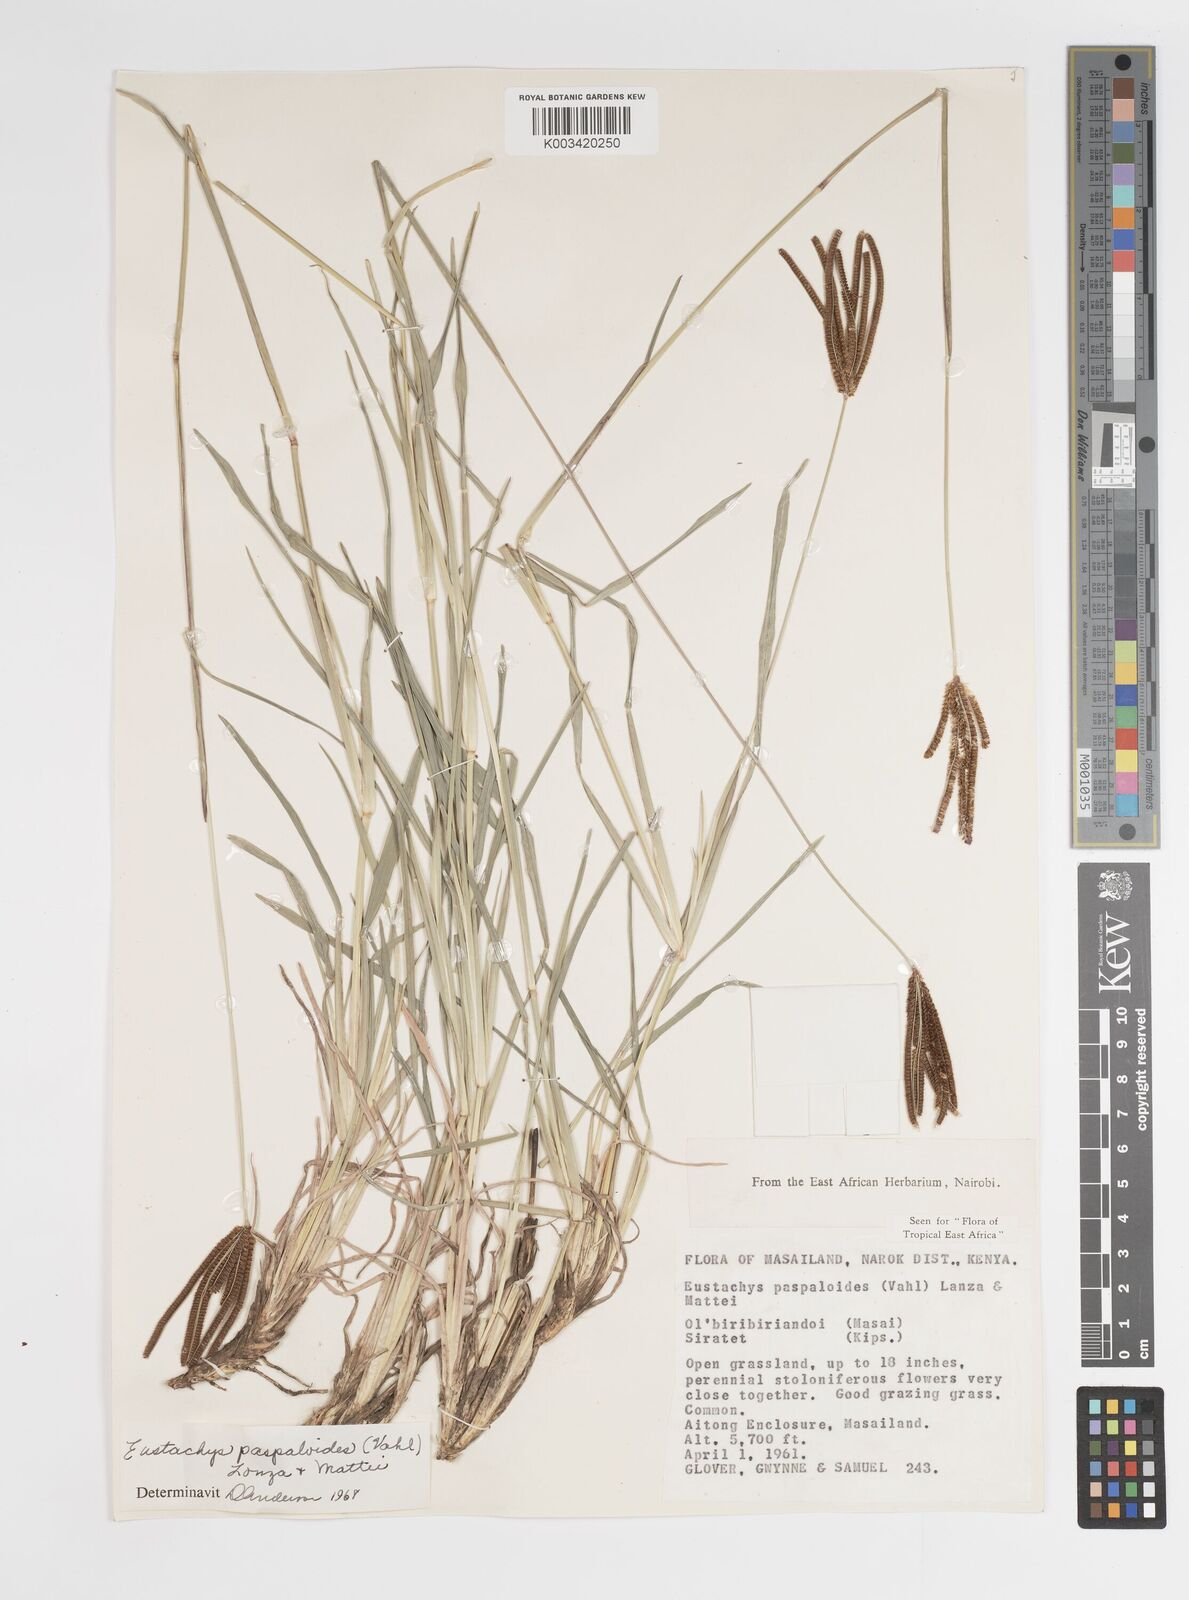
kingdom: Plantae
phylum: Tracheophyta
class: Liliopsida
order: Poales
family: Poaceae
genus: Eustachys
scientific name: Eustachys paspaloides
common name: Caribbean fingergrass
